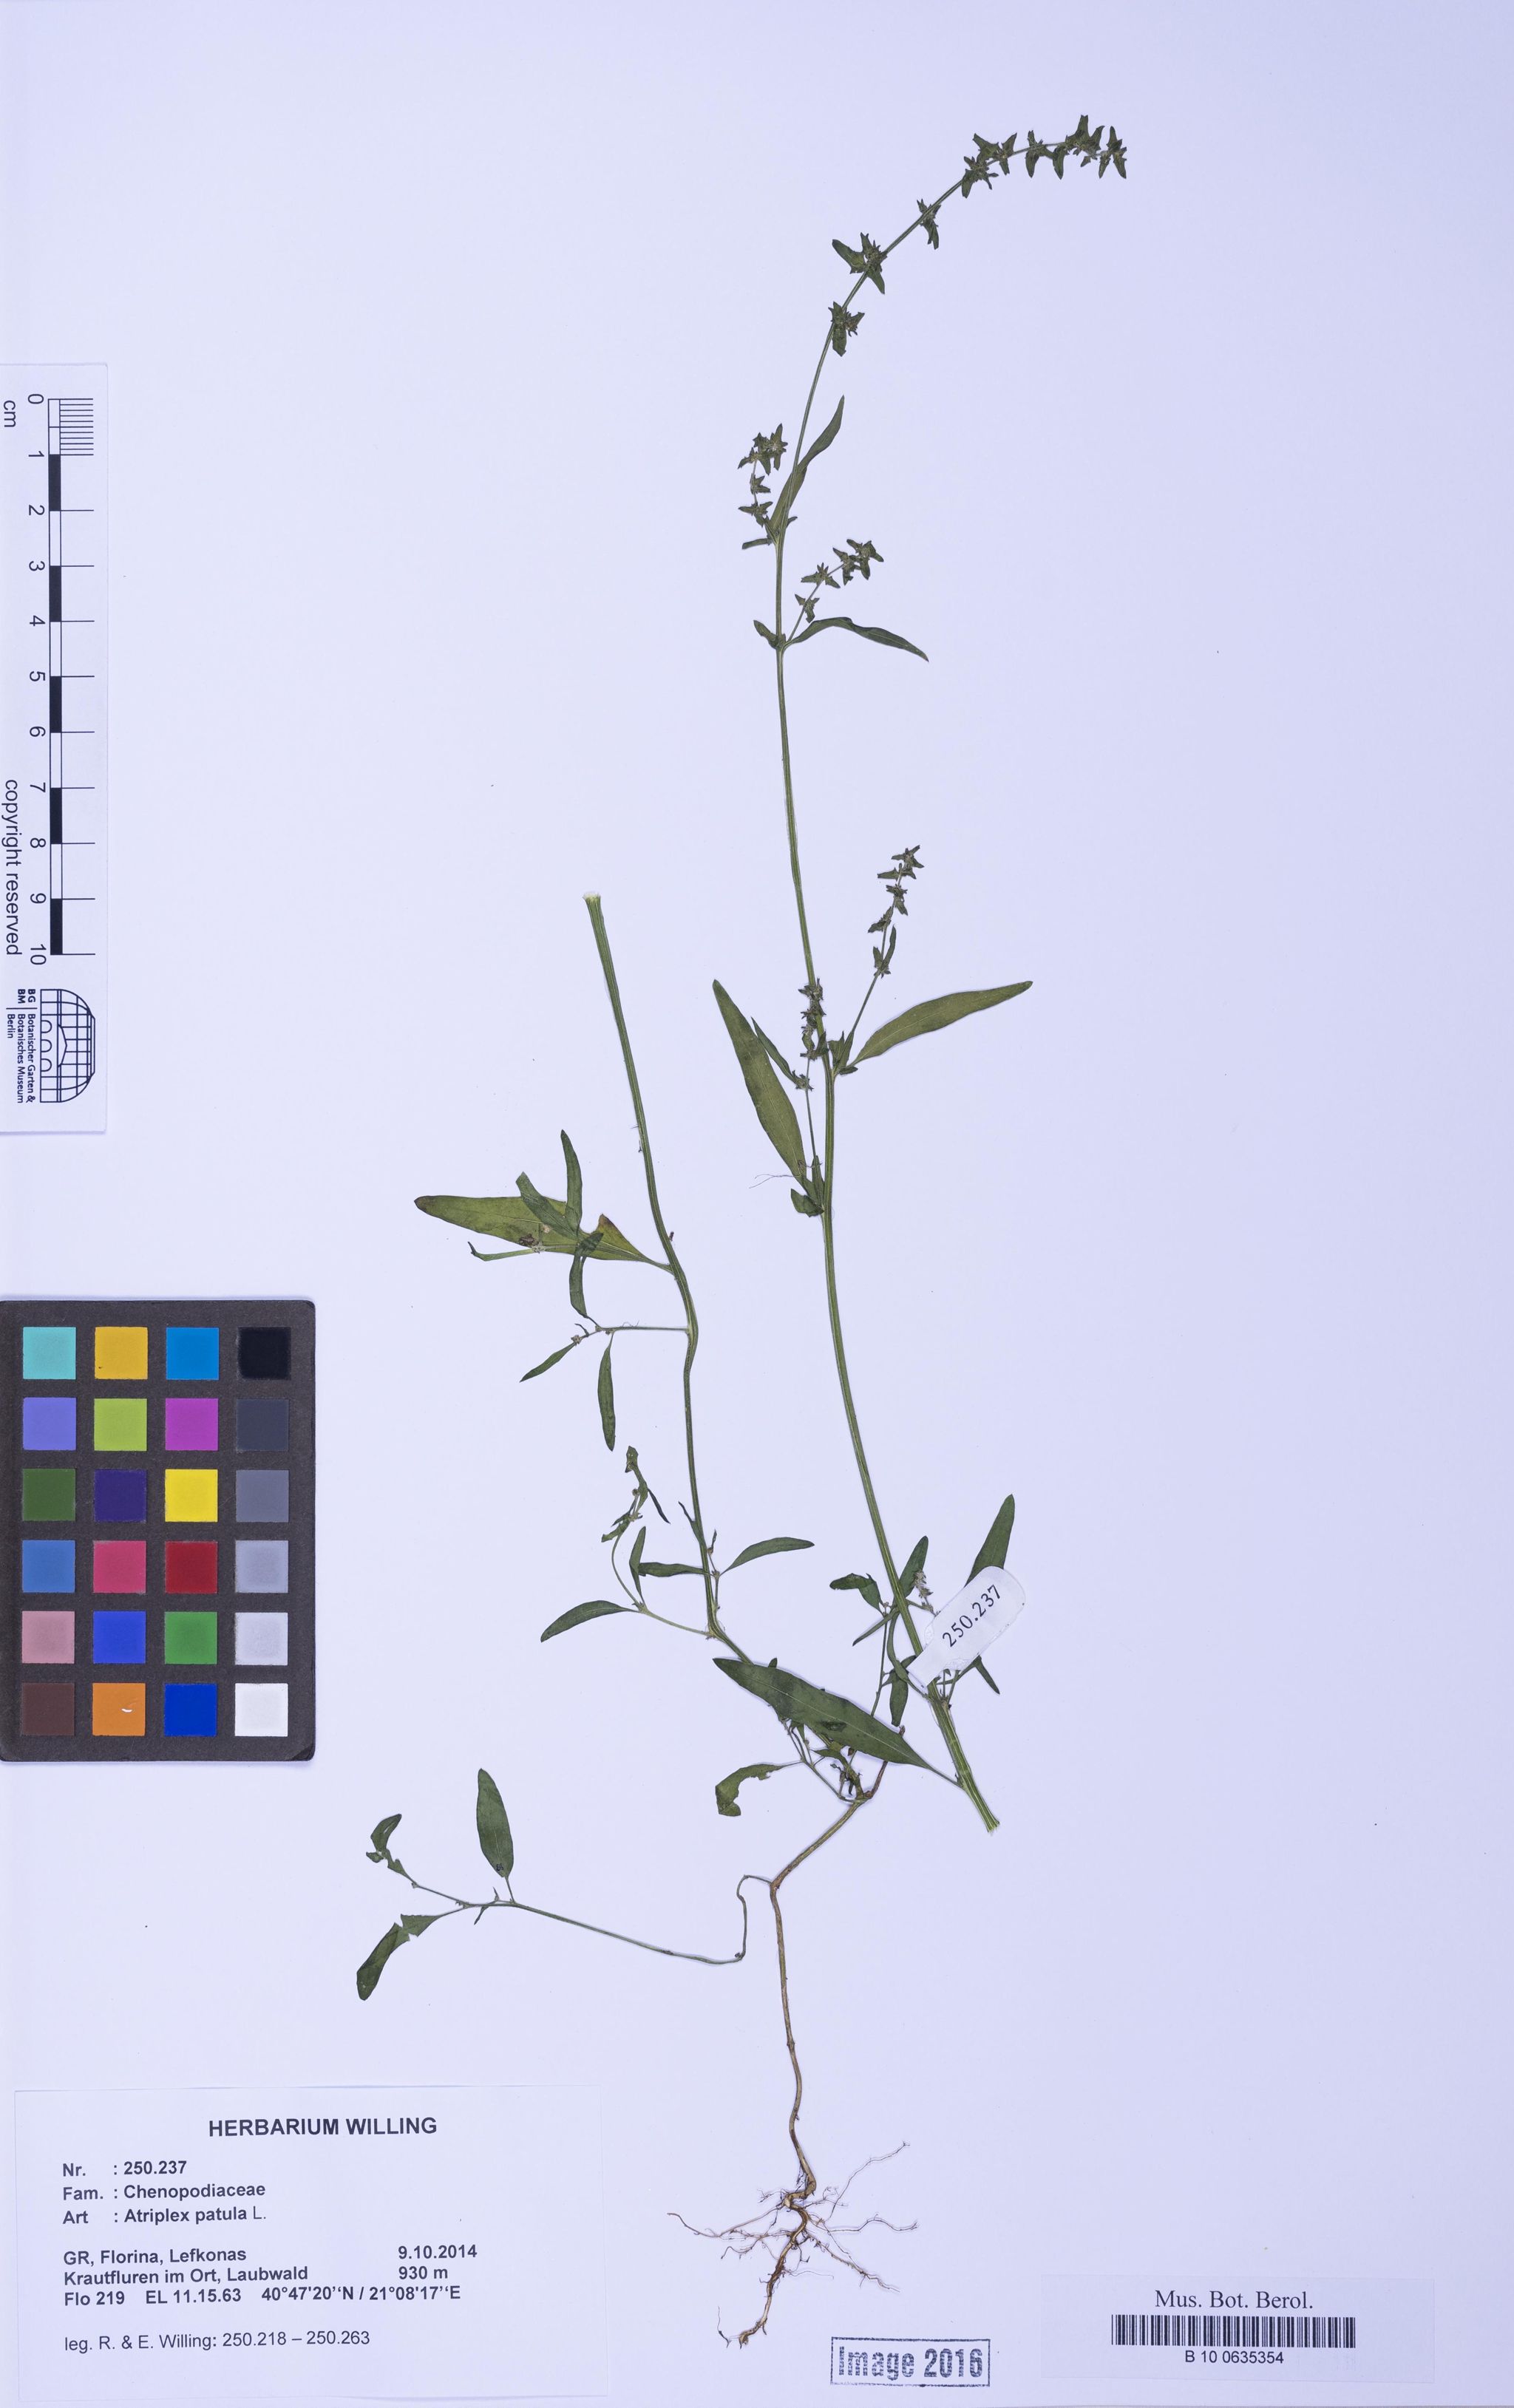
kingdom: Plantae
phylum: Tracheophyta
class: Magnoliopsida
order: Caryophyllales
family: Amaranthaceae
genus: Atriplex
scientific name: Atriplex patula
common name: Common orache
